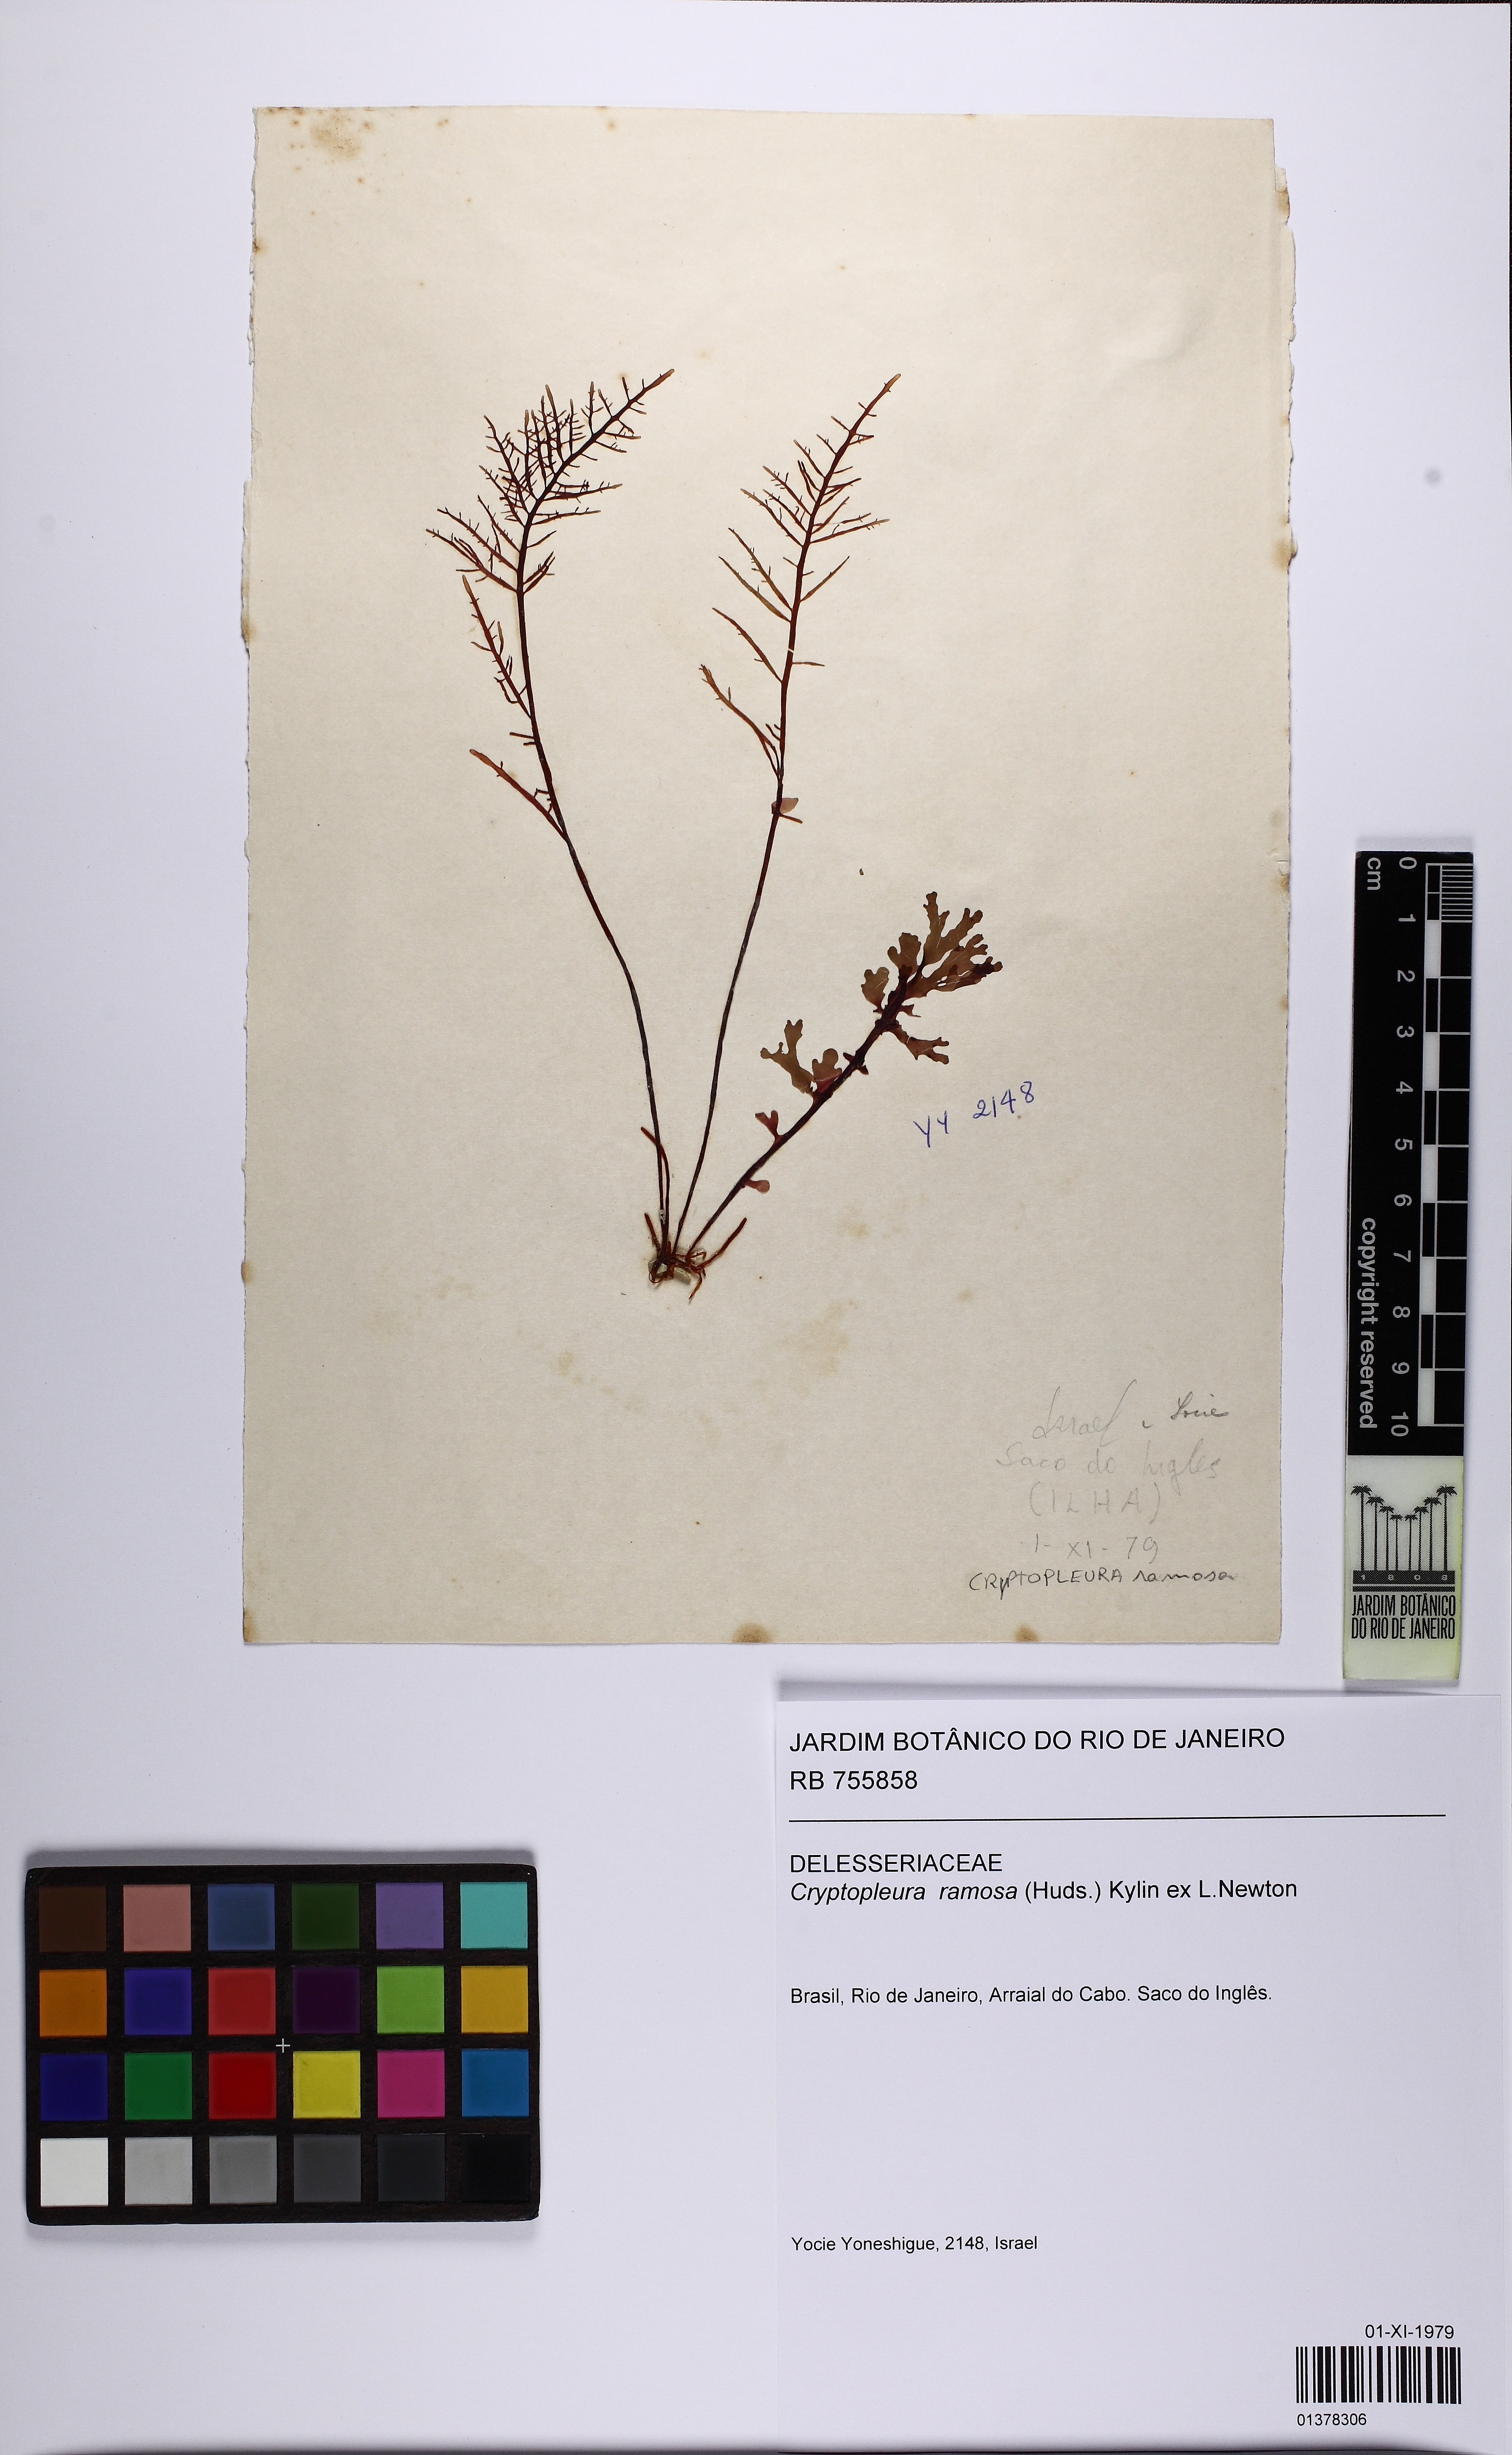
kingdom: Plantae
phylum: Rhodophyta
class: Florideophyceae
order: Ceramiales
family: Delesseriaceae
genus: Cryptopleura
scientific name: Cryptopleura ramosa
